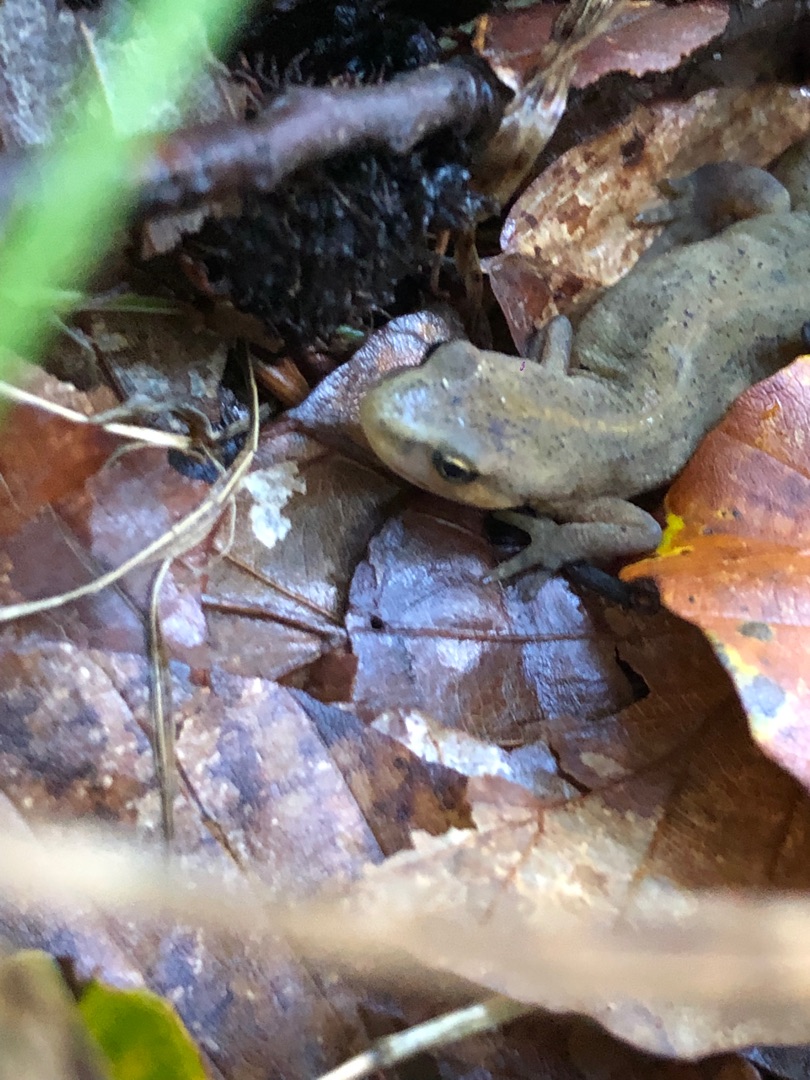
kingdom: Animalia
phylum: Chordata
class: Amphibia
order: Caudata
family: Salamandridae
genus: Lissotriton
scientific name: Lissotriton vulgaris
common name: Lille vandsalamander
